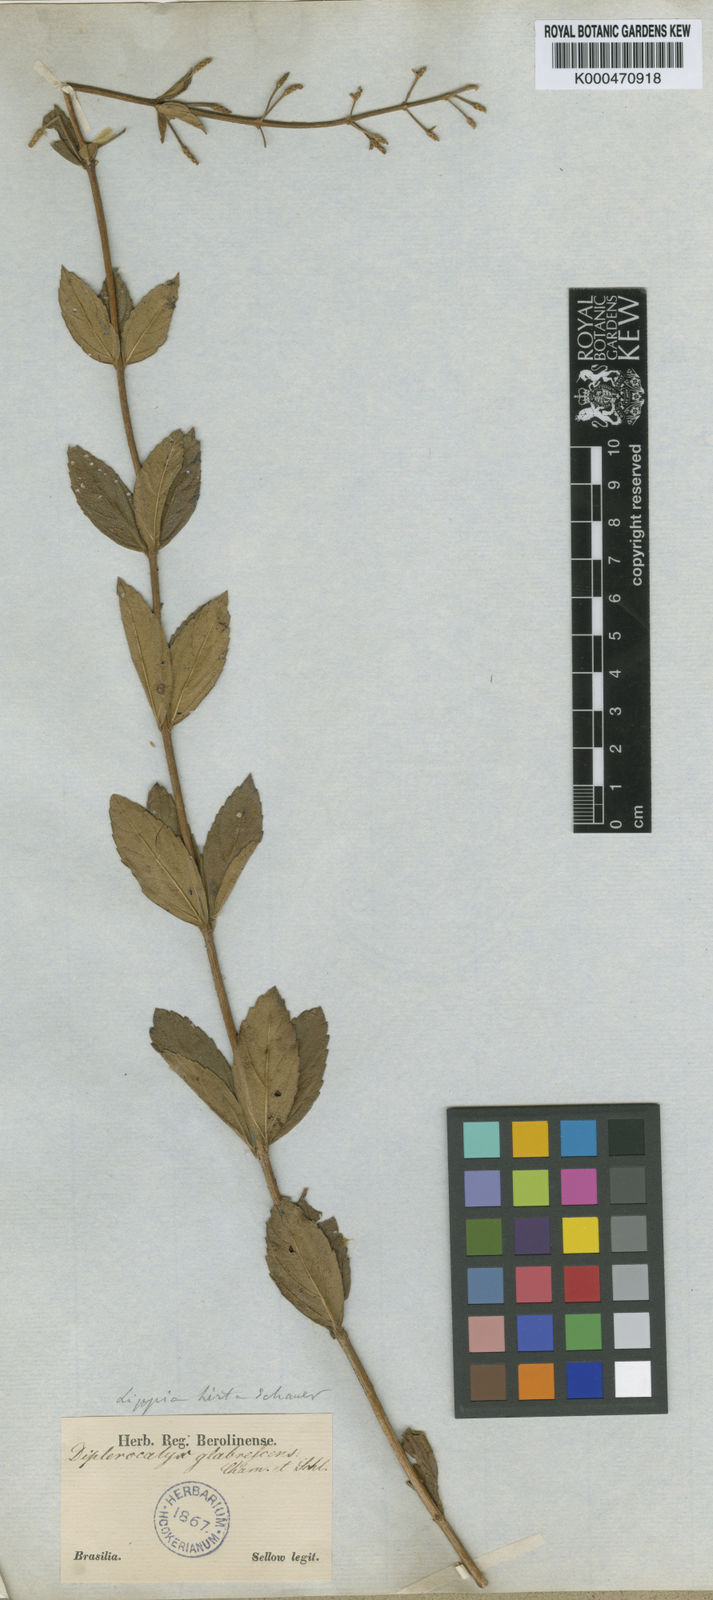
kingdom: Plantae
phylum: Tracheophyta
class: Magnoliopsida
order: Lamiales
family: Verbenaceae
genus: Lippia
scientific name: Lippia
